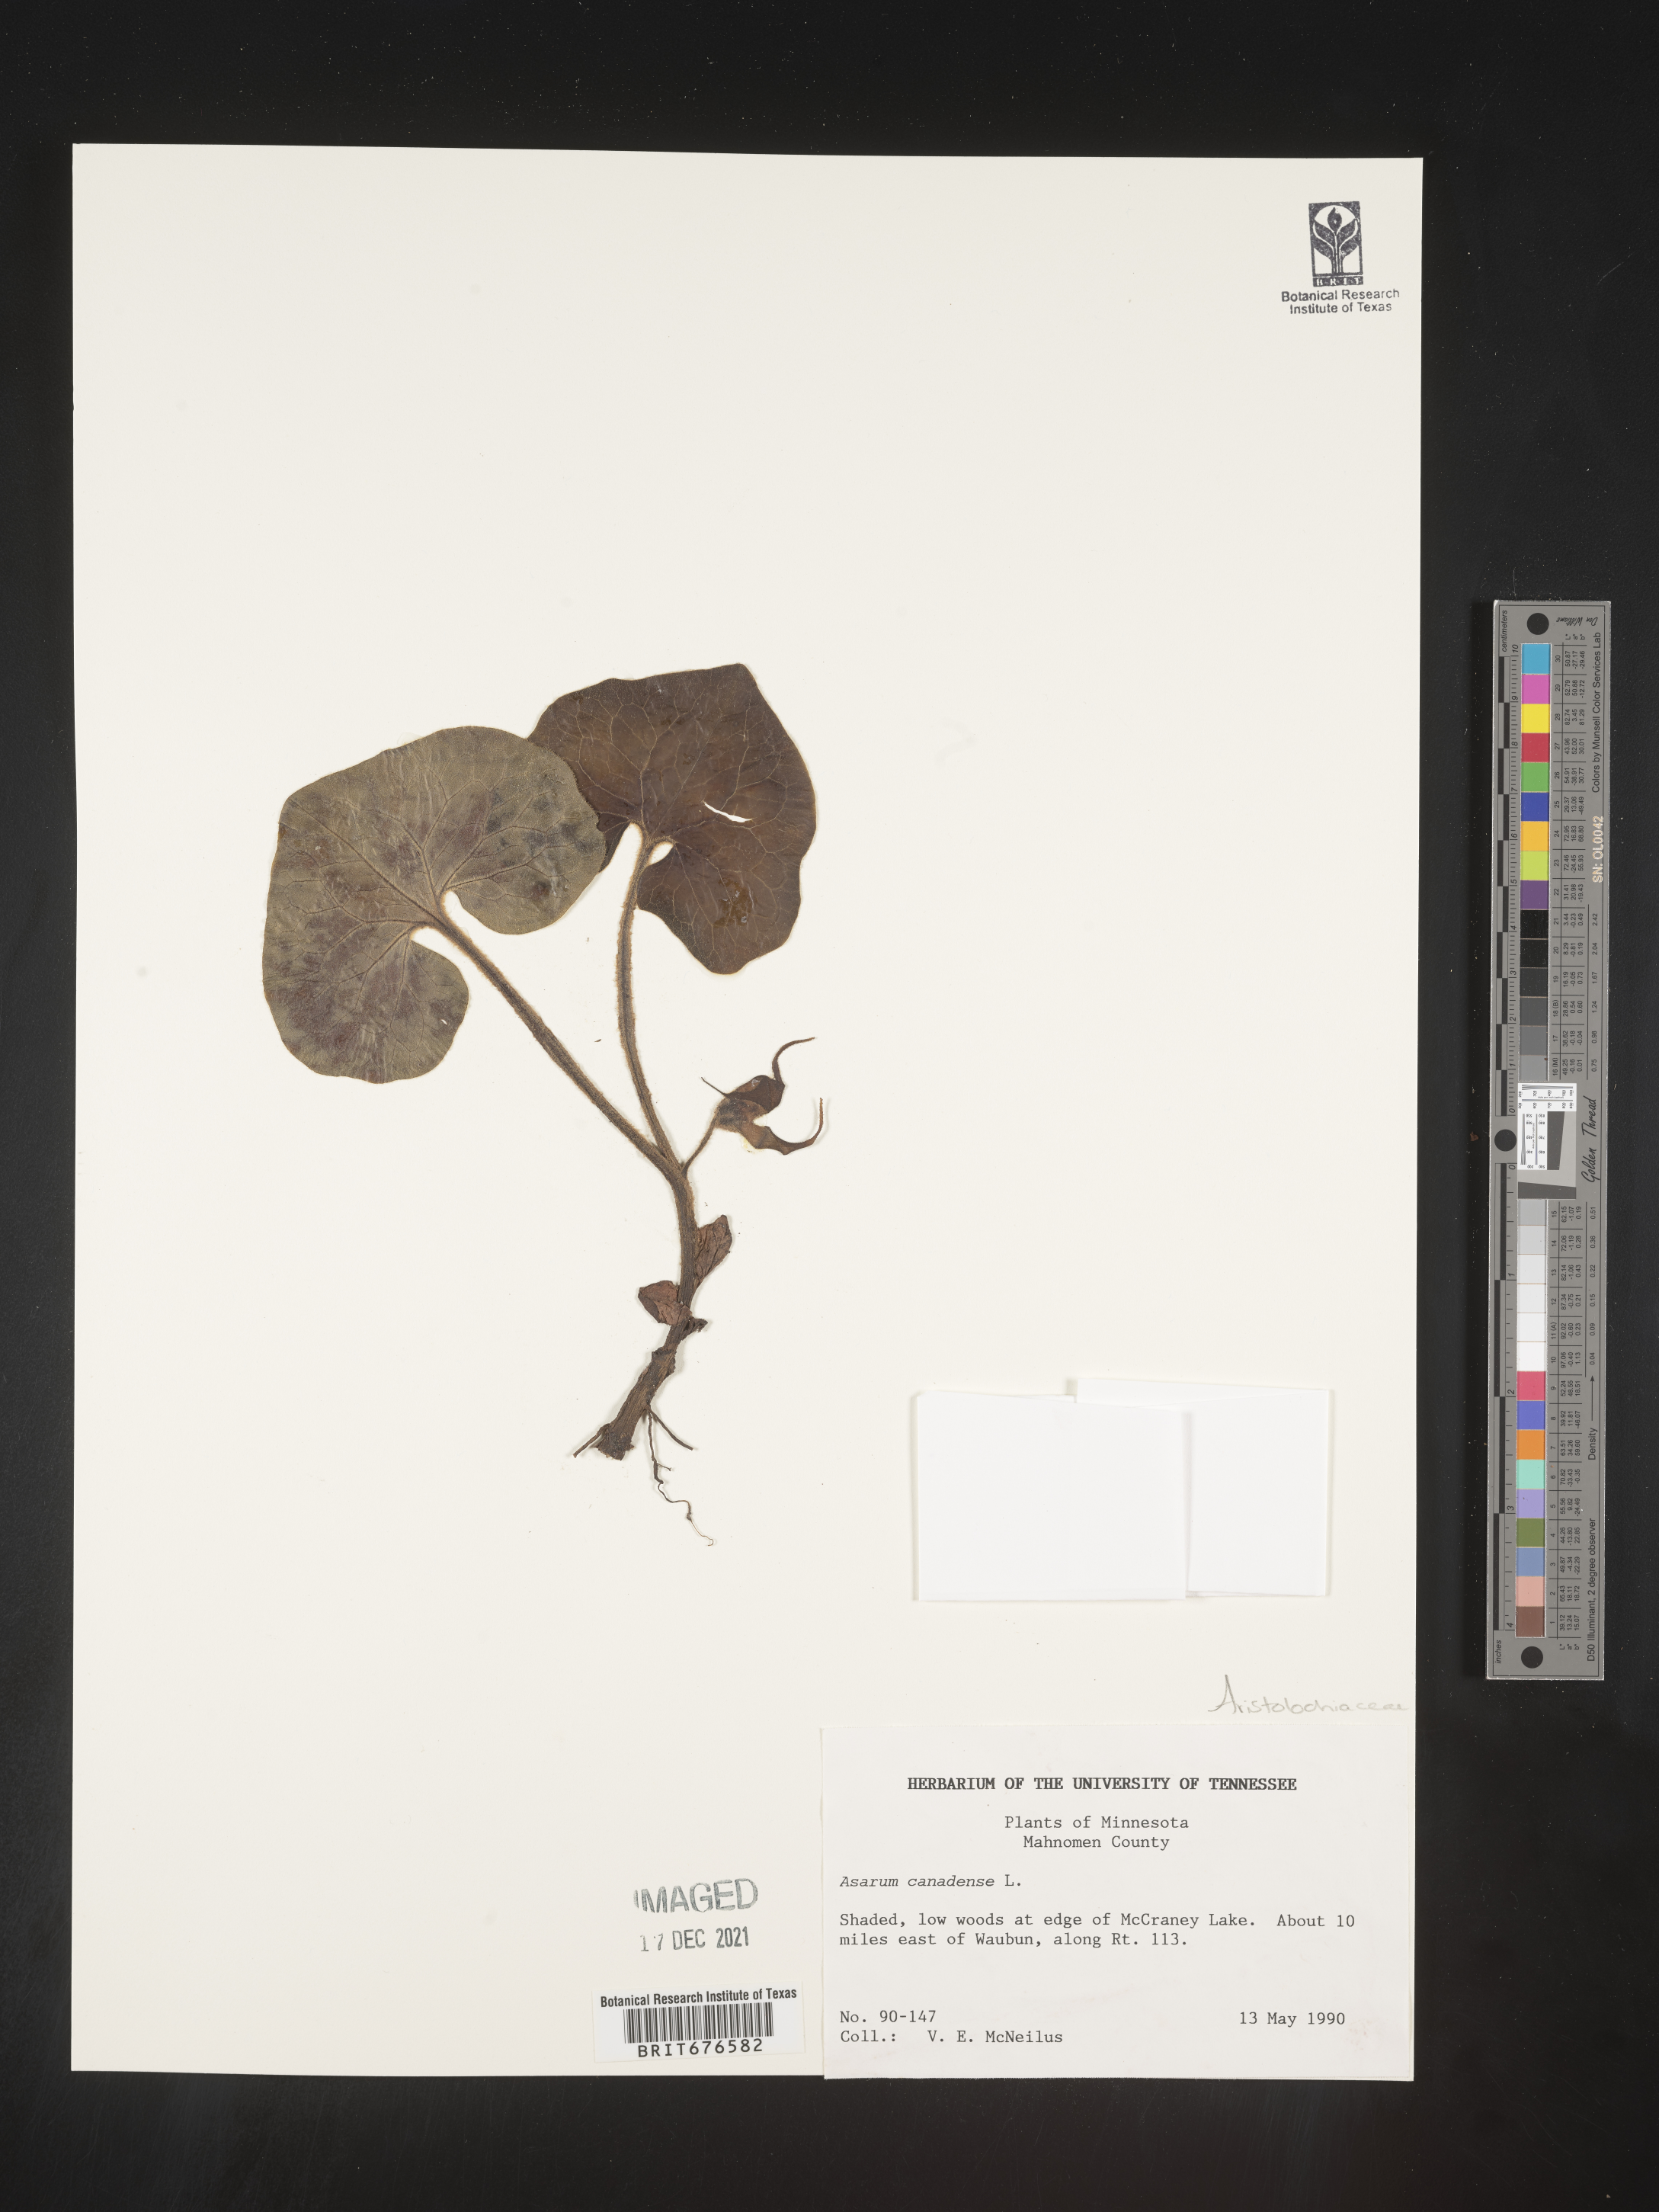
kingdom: Plantae
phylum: Tracheophyta
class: Magnoliopsida
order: Piperales
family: Aristolochiaceae
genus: Asarum
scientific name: Asarum canadense
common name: Wild ginger
